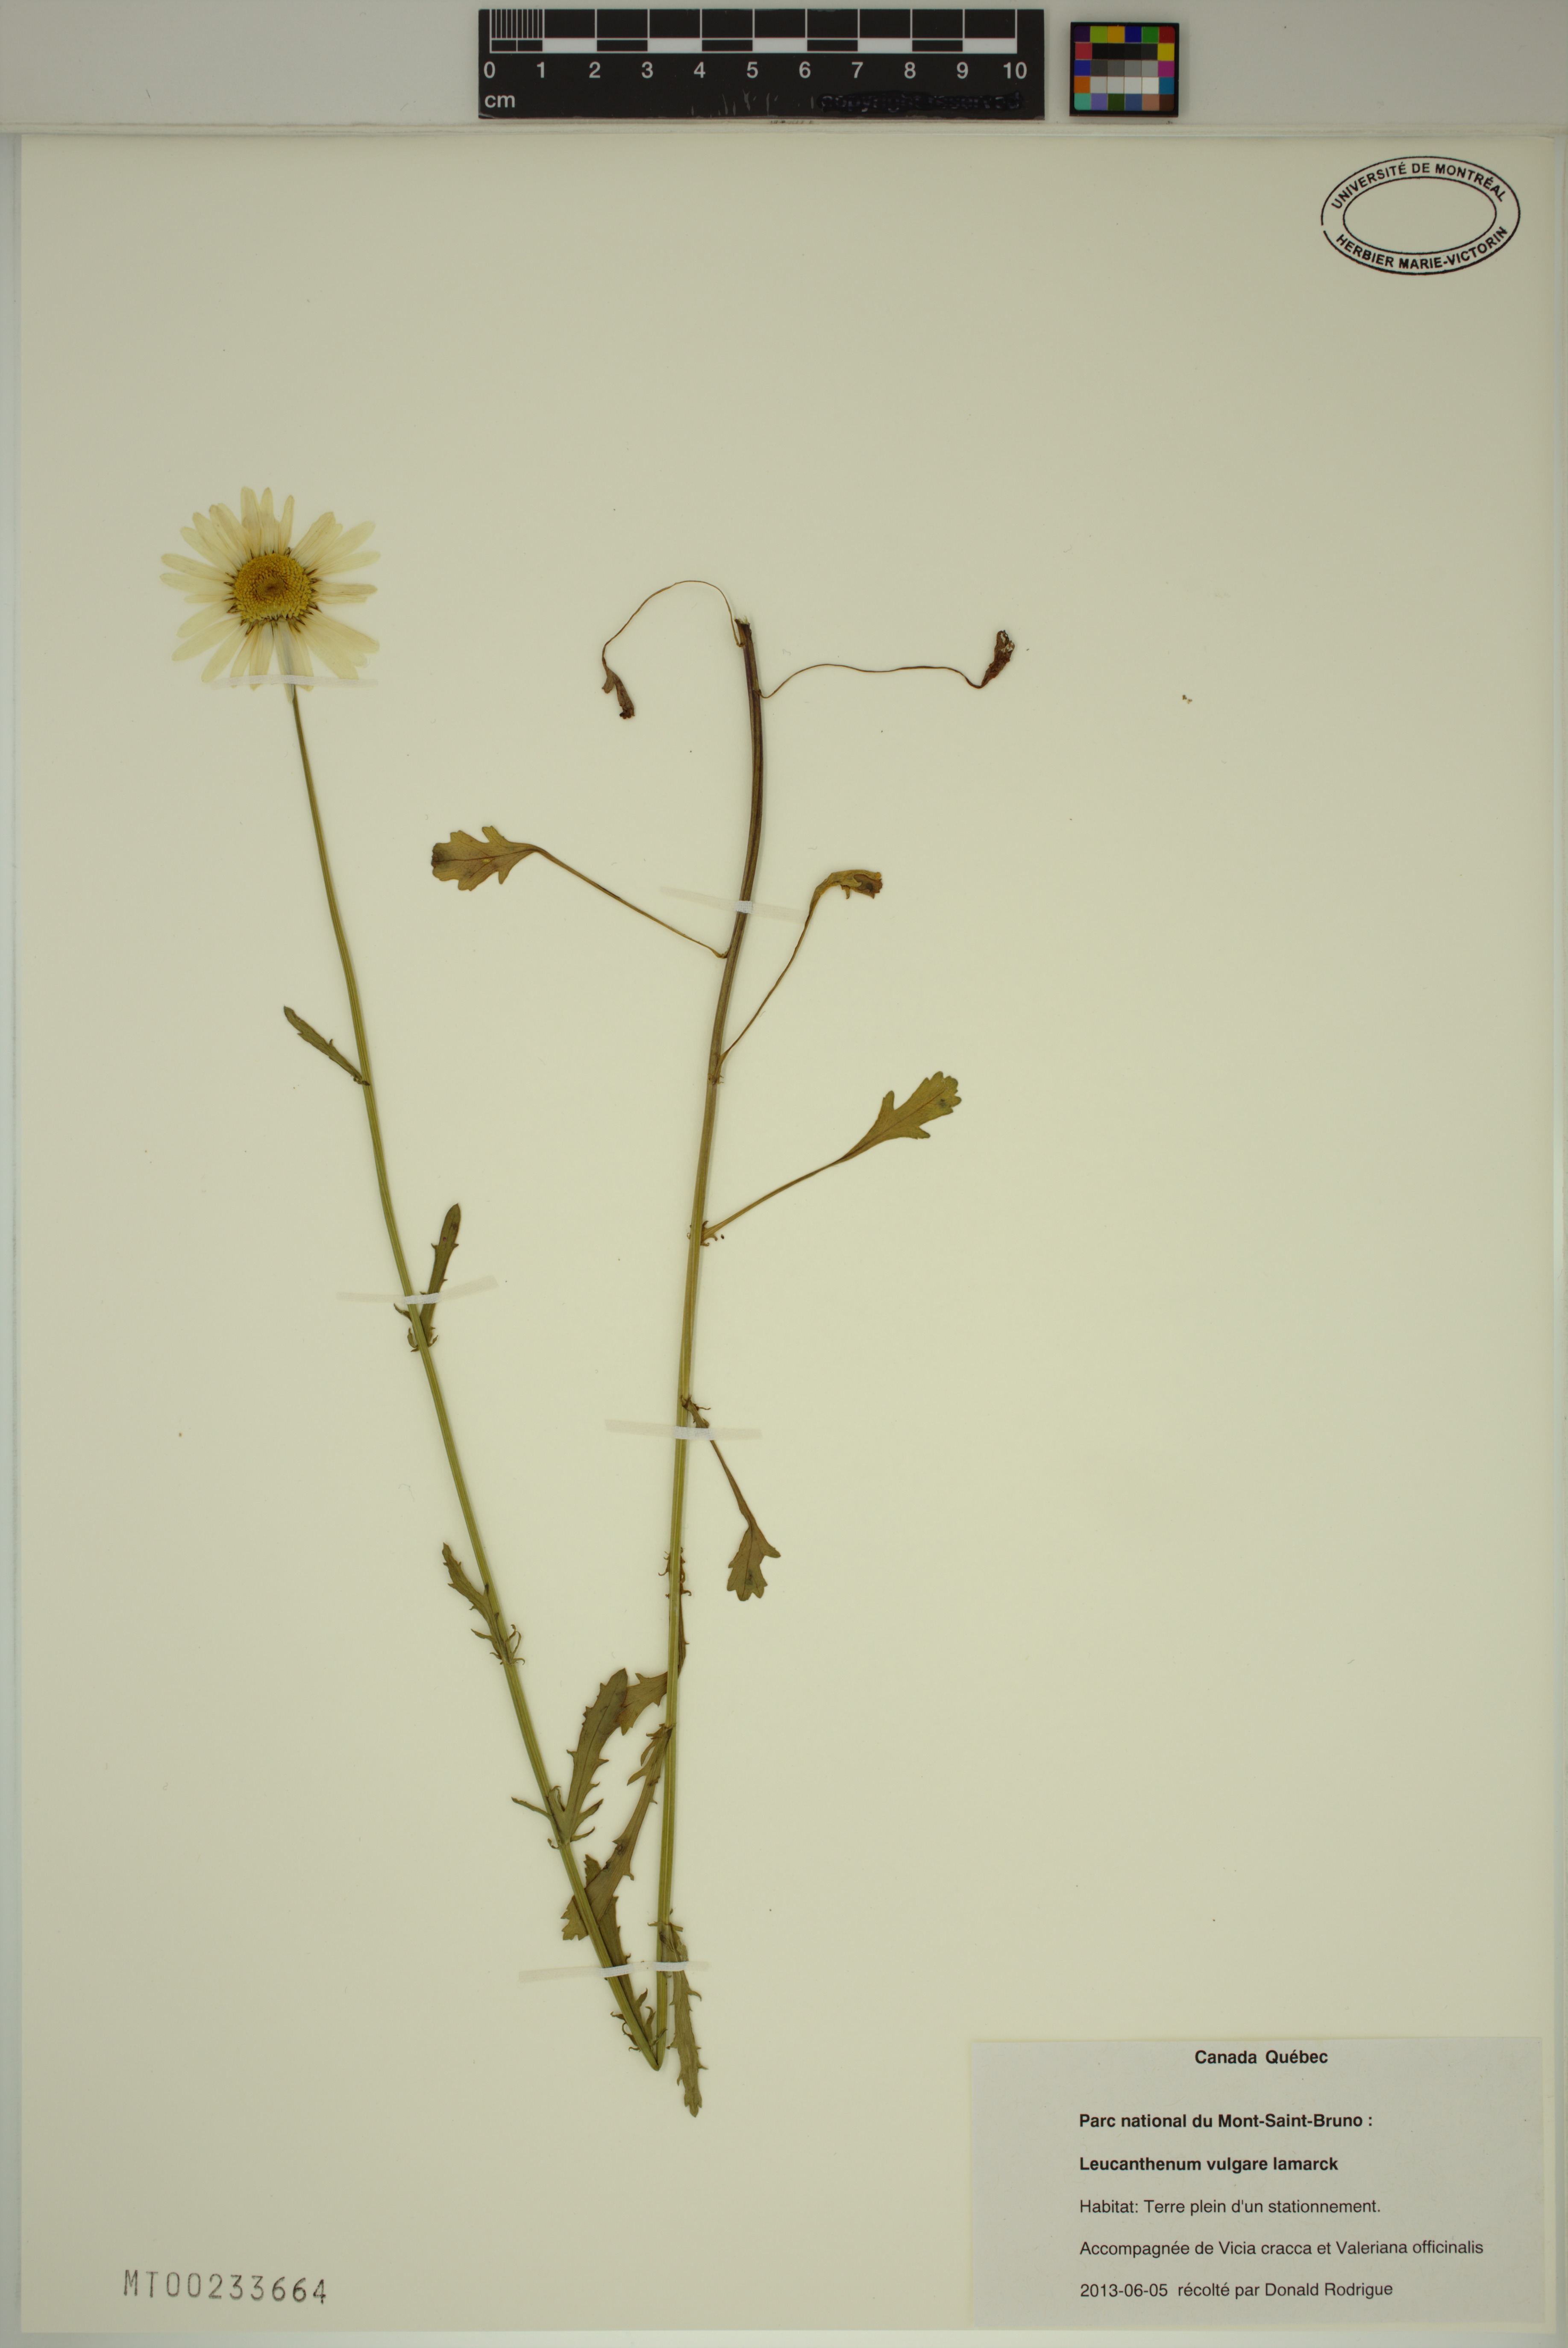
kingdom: Plantae
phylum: Tracheophyta
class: Magnoliopsida
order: Asterales
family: Asteraceae
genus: Leucanthemum
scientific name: Leucanthemum vulgare
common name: Oxeye daisy
